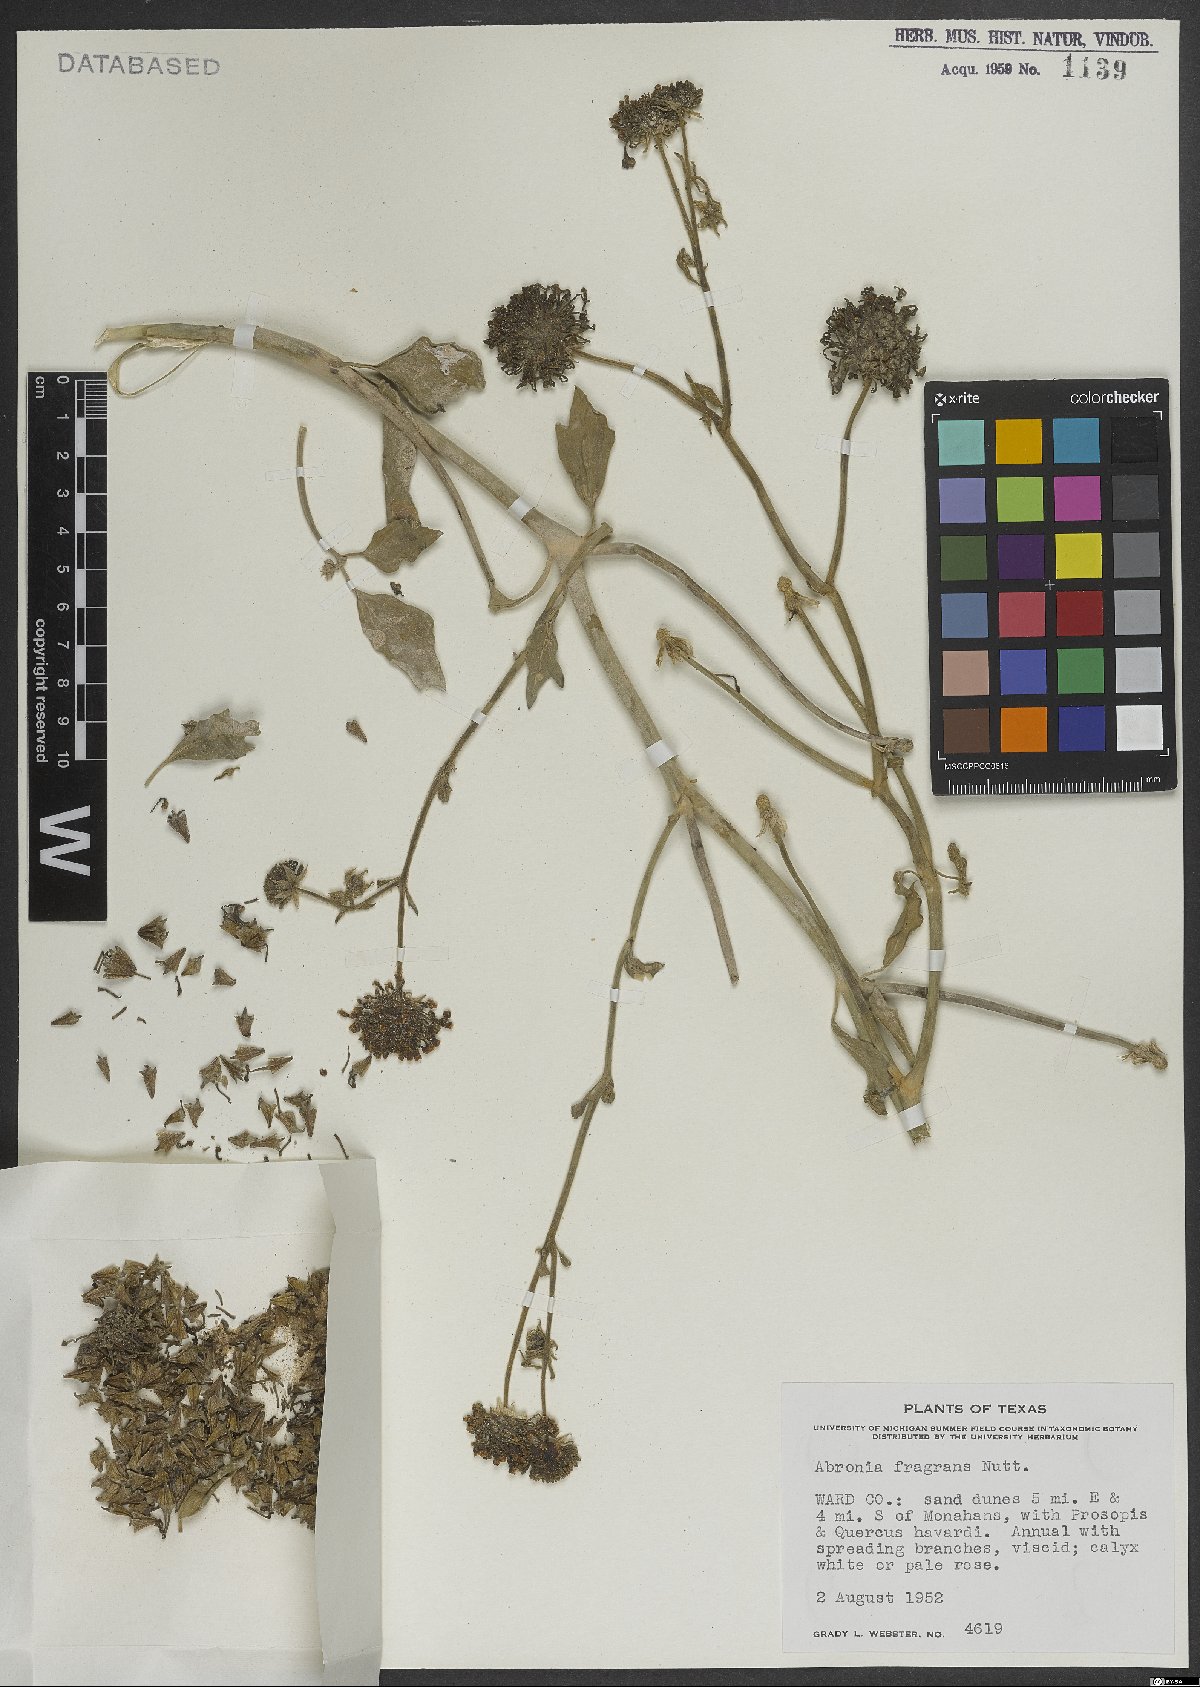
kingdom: Plantae
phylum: Tracheophyta
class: Magnoliopsida
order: Caryophyllales
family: Nyctaginaceae
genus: Abronia
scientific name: Abronia fragrans
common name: Fragrant sand-verbena
